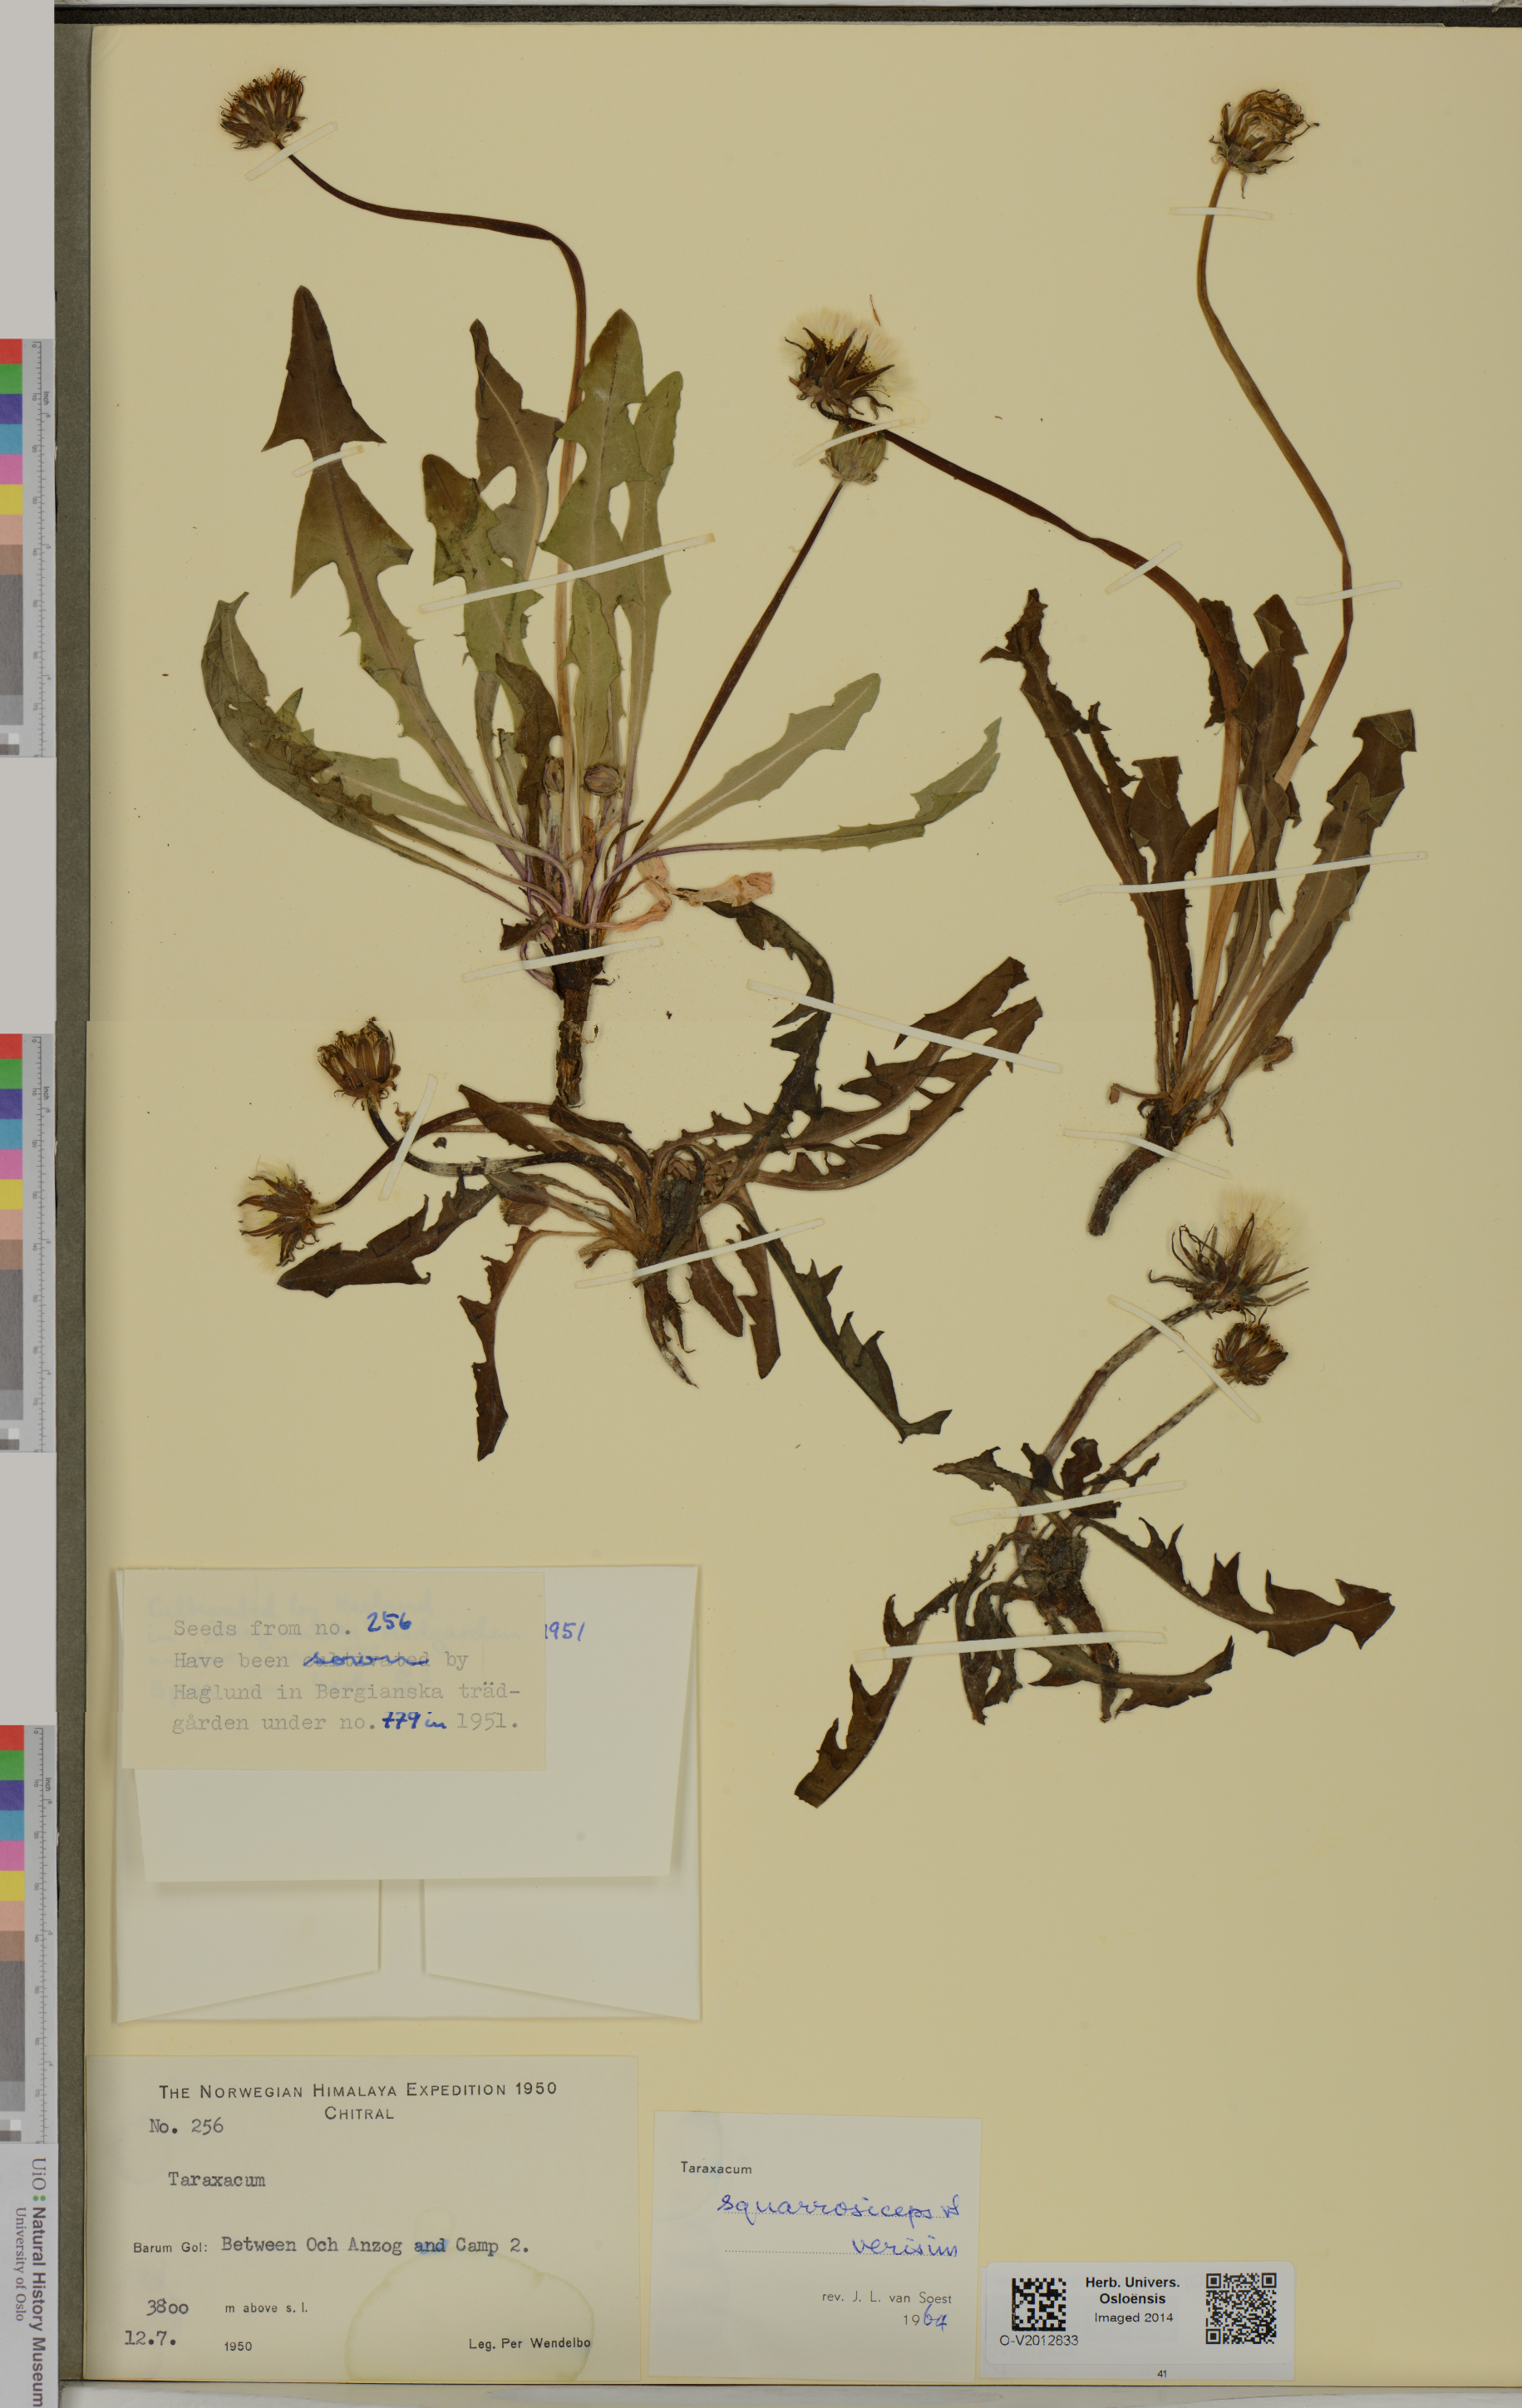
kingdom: Plantae
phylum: Tracheophyta
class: Magnoliopsida
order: Asterales
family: Asteraceae
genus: Taraxacum
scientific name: Taraxacum squarrosiceps
